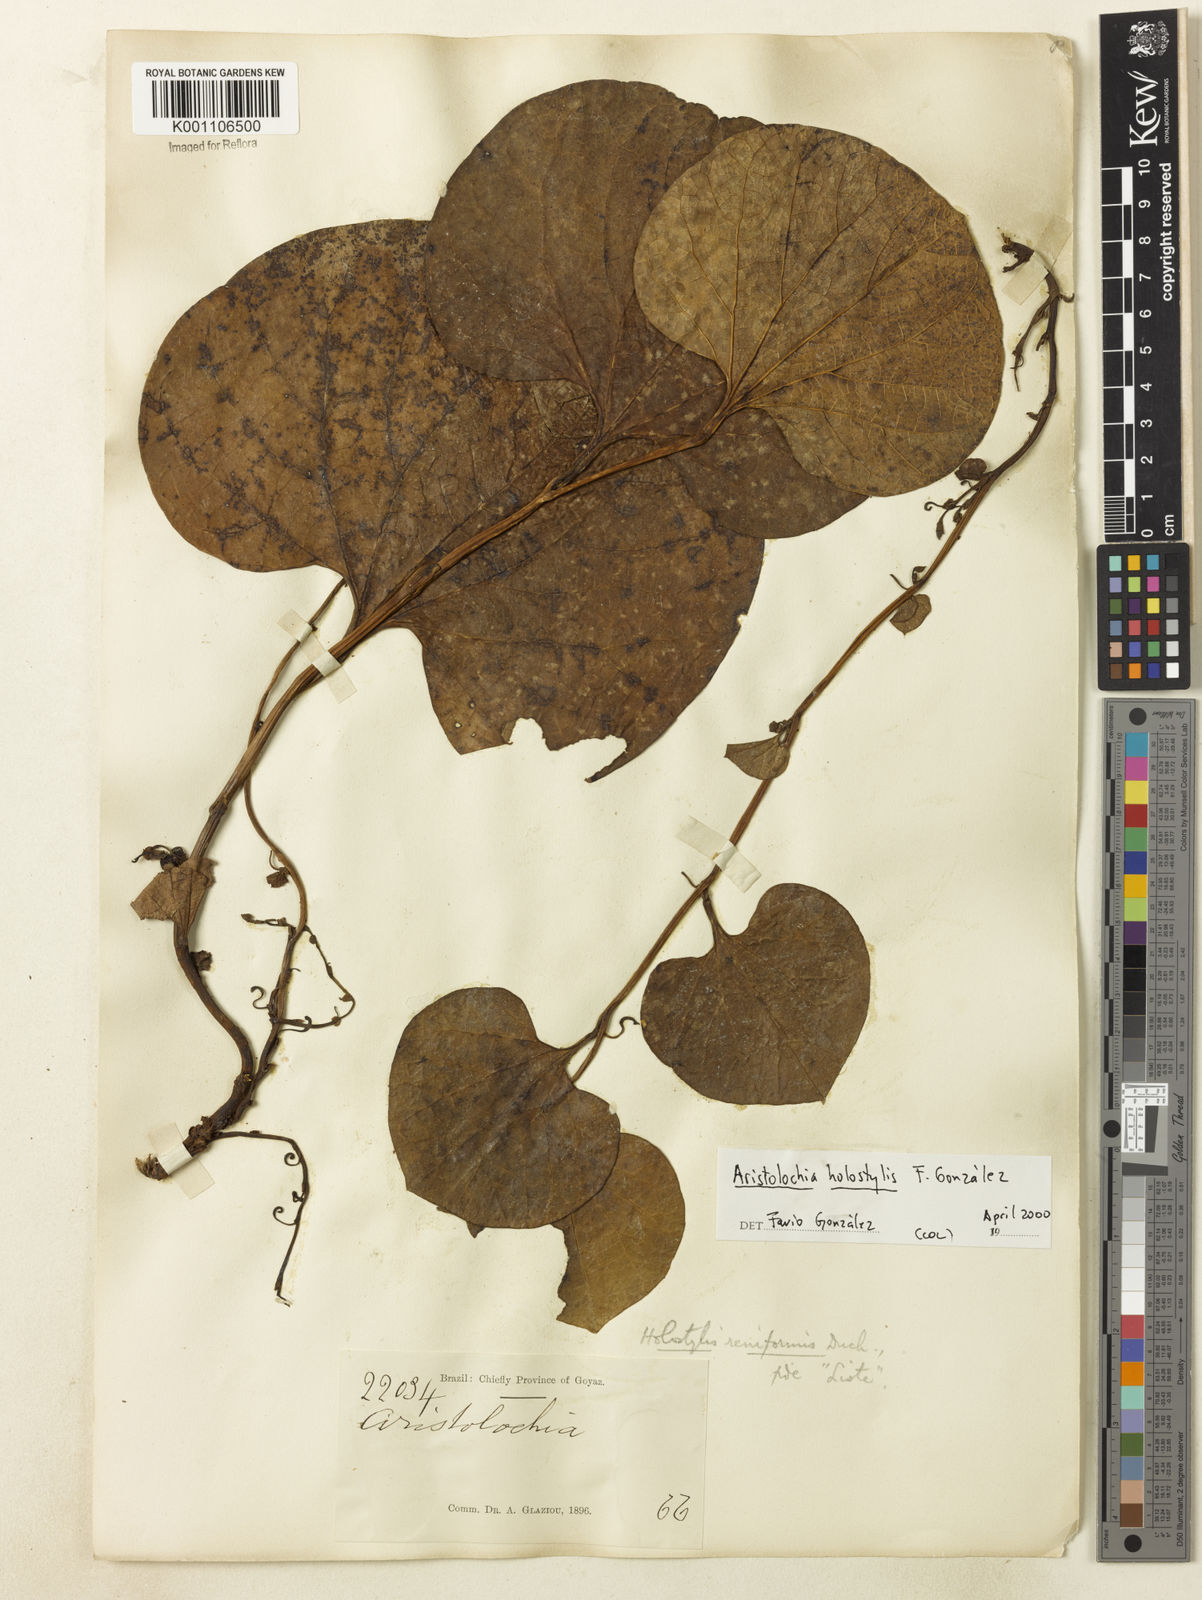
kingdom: Plantae
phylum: Tracheophyta
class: Magnoliopsida
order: Piperales
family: Aristolochiaceae
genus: Aristolochia
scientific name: Aristolochia
